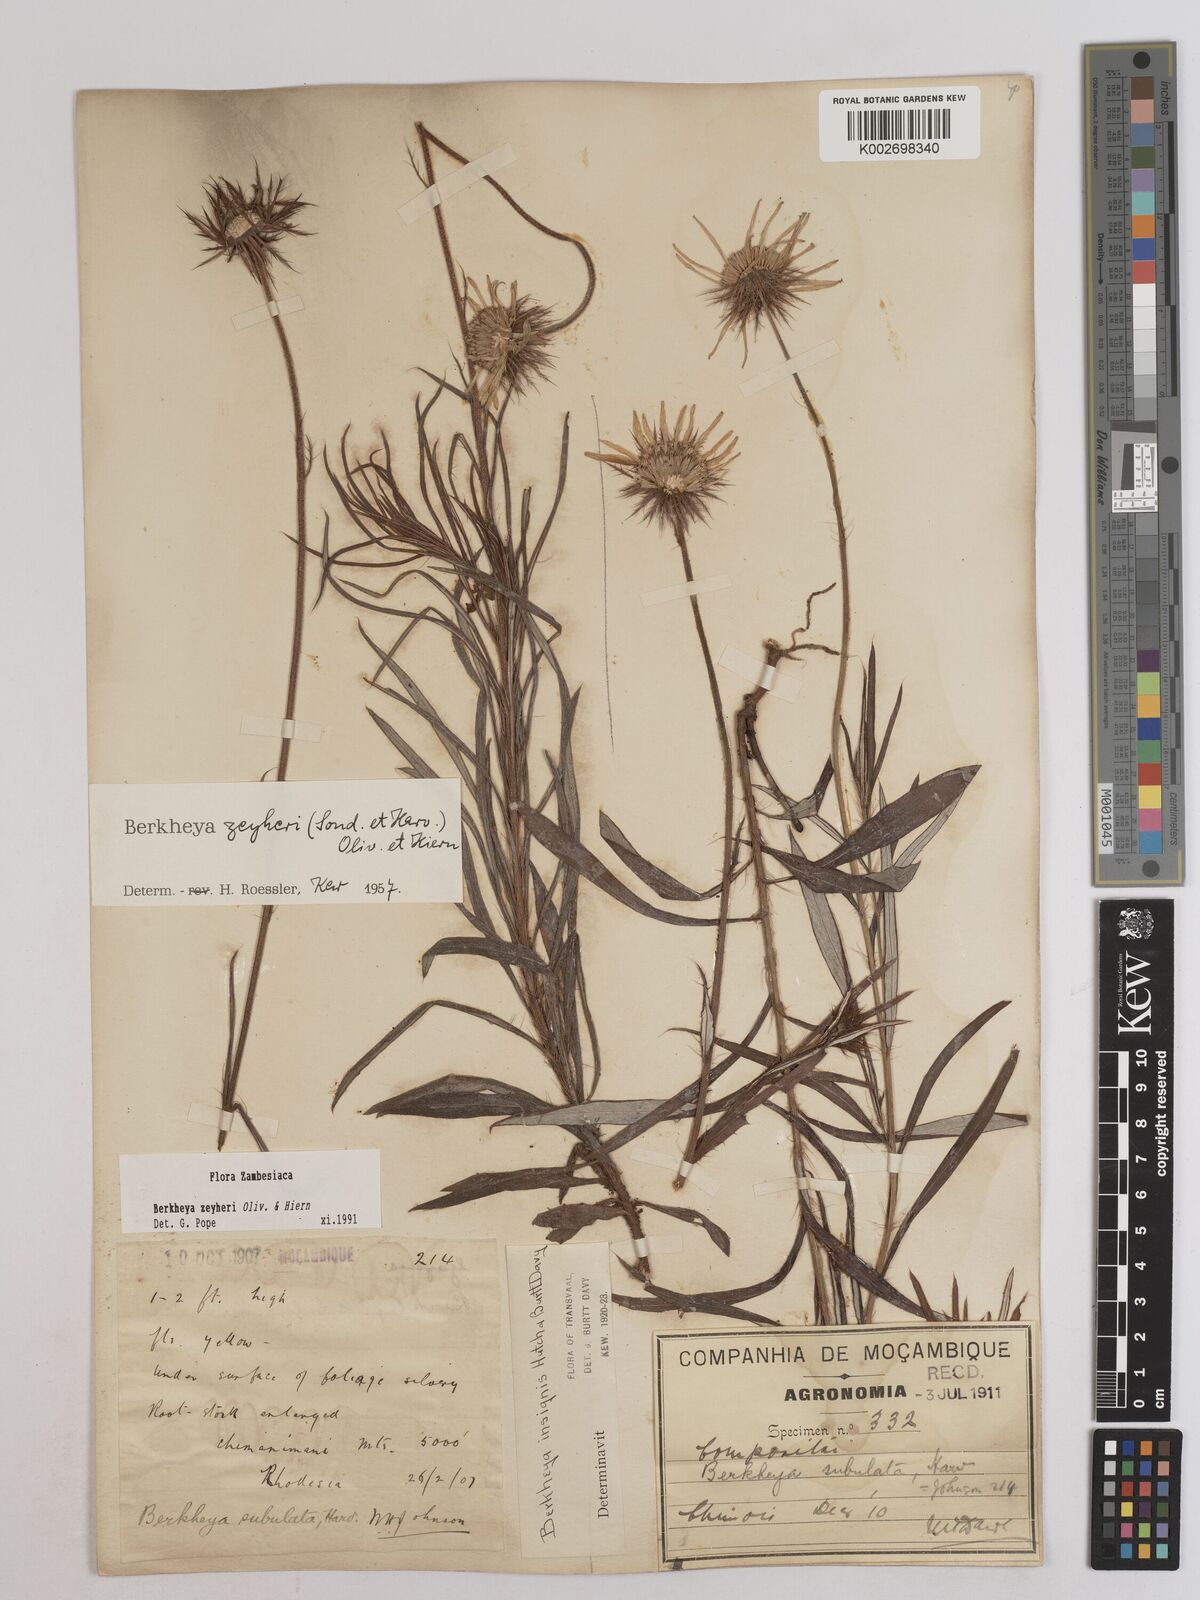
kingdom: Plantae
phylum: Tracheophyta
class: Magnoliopsida
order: Asterales
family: Asteraceae
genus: Berkheya
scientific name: Berkheya zeyheri
